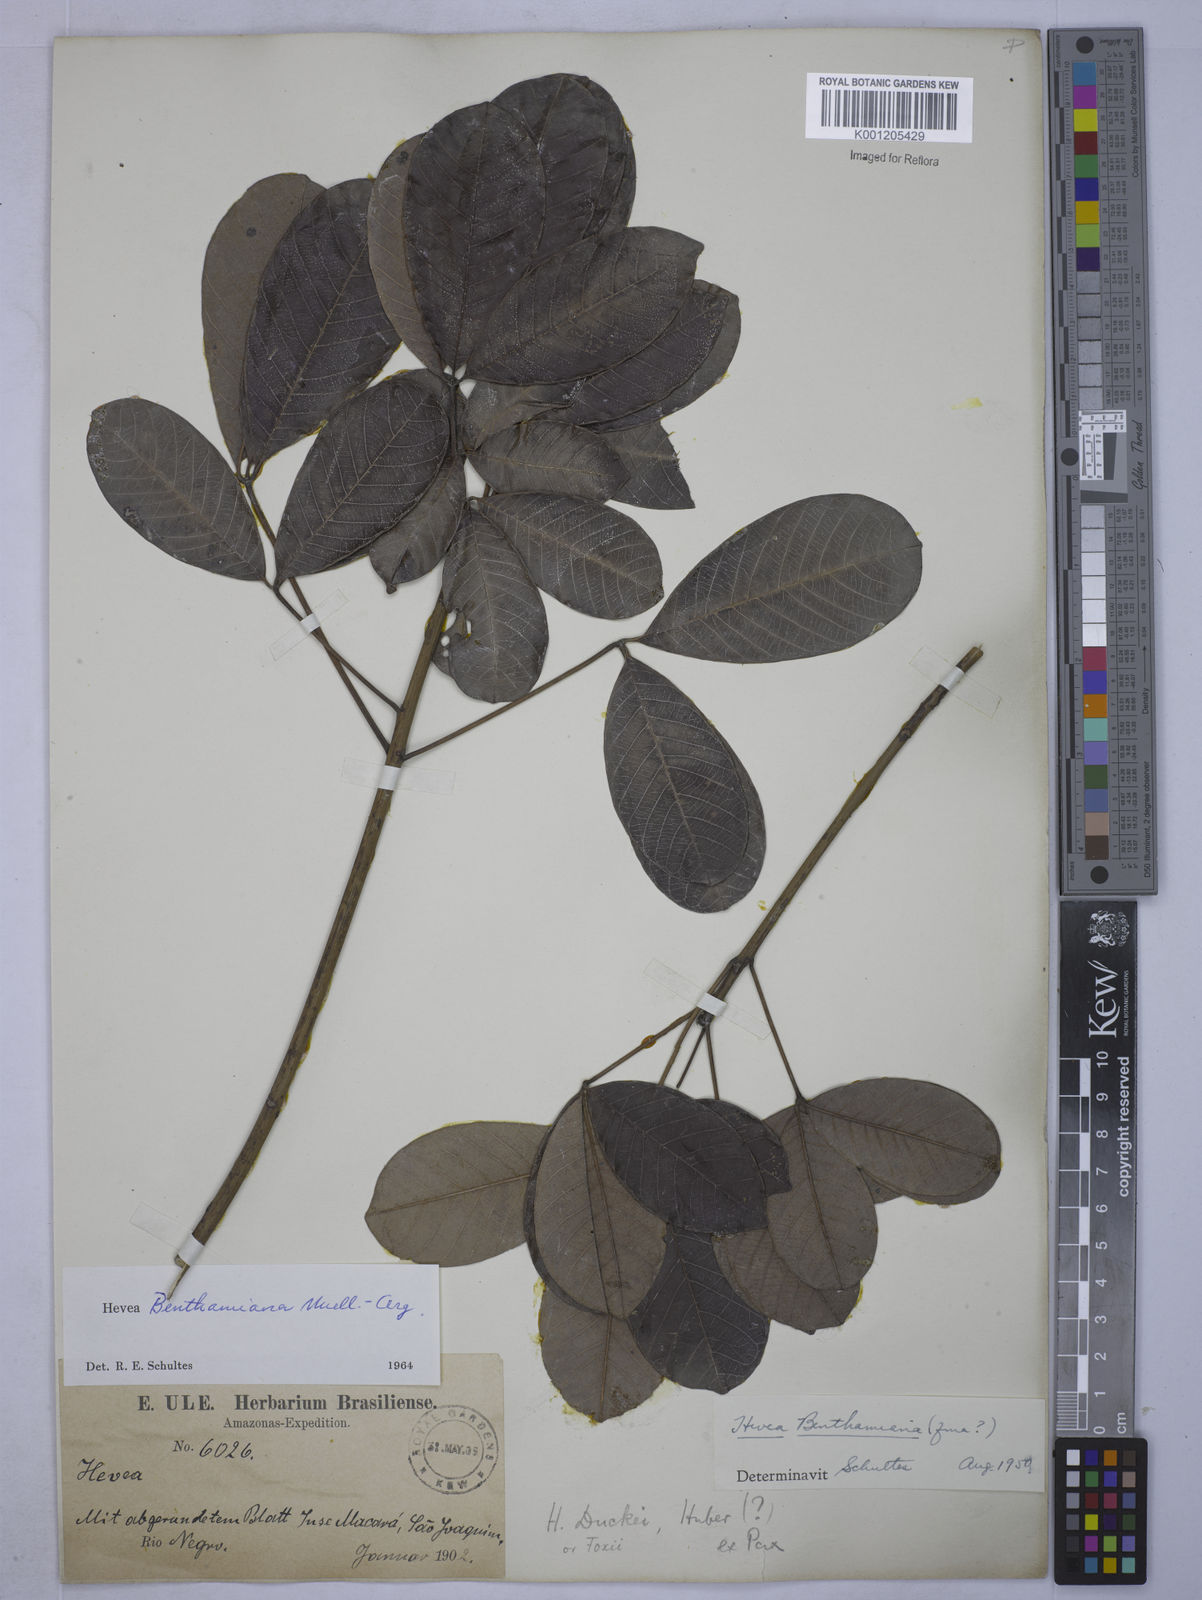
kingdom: Plantae
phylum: Tracheophyta
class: Magnoliopsida
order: Malpighiales
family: Euphorbiaceae
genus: Hevea
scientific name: Hevea benthamiana
